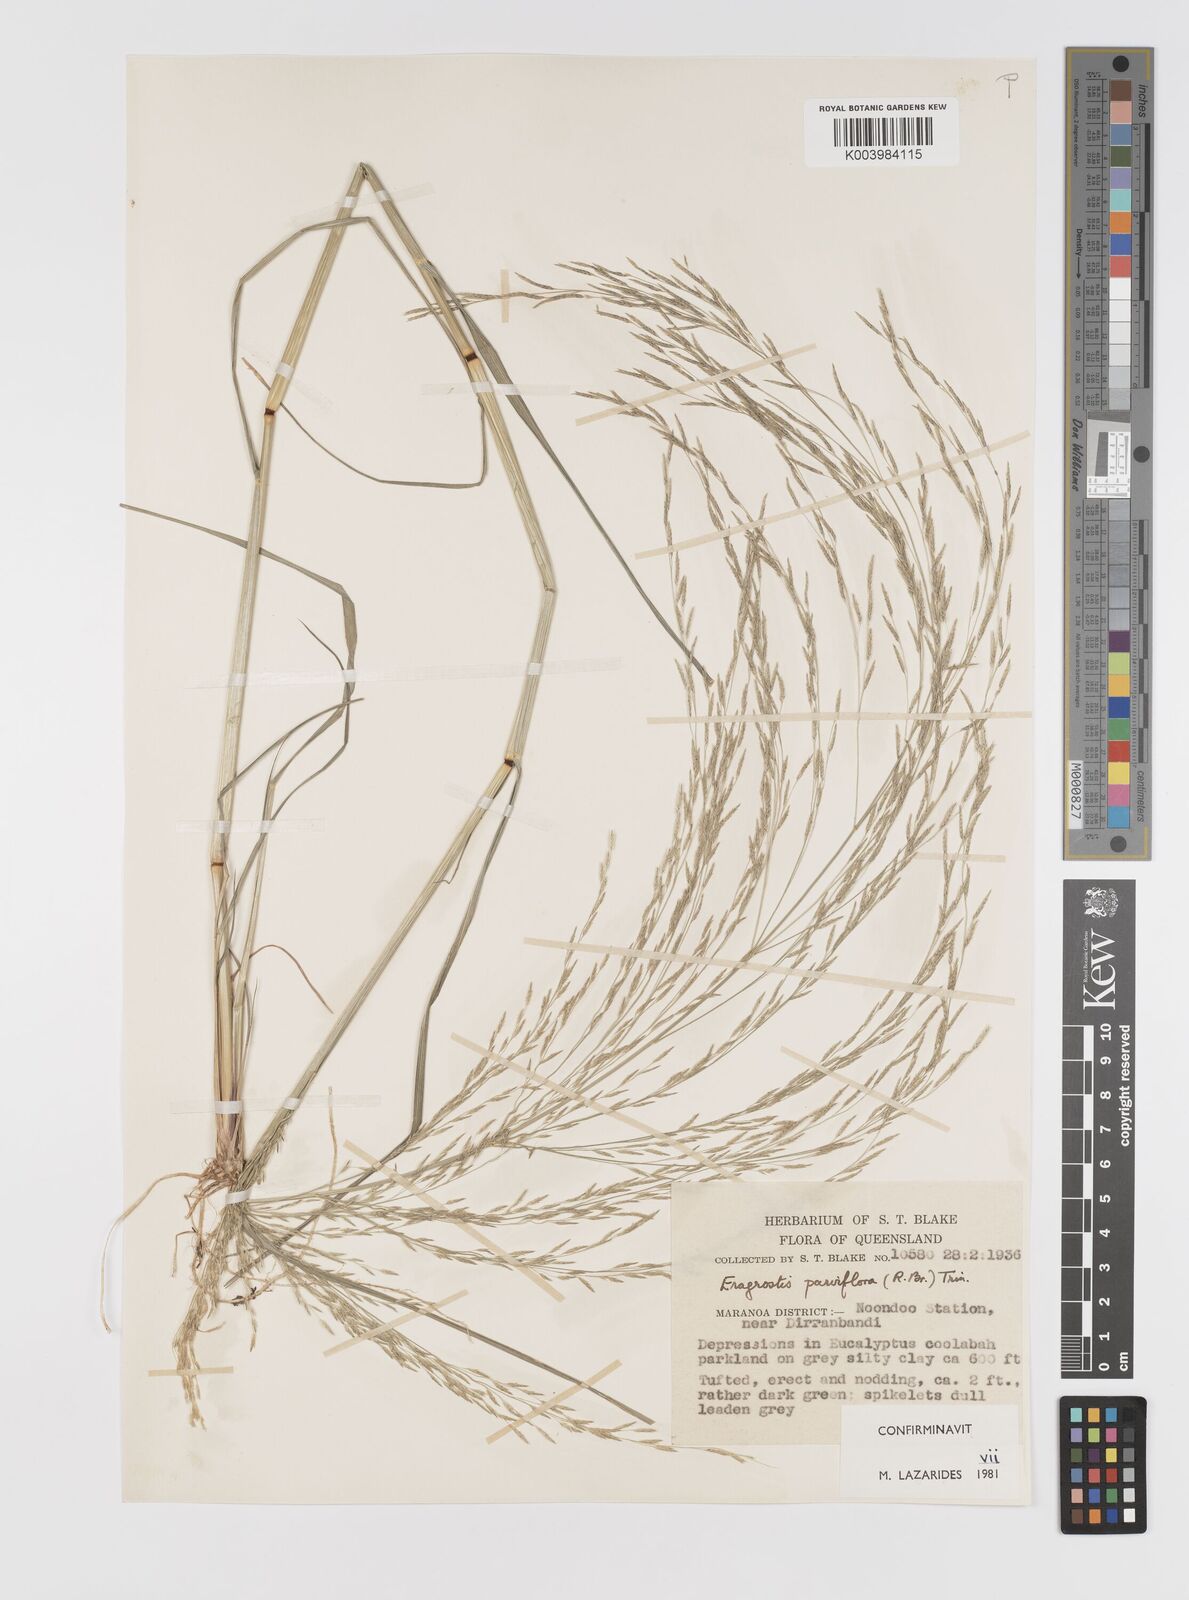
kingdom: Plantae
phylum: Tracheophyta
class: Liliopsida
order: Poales
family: Poaceae
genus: Eragrostis
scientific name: Eragrostis parviflora
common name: Weeping love-grass
